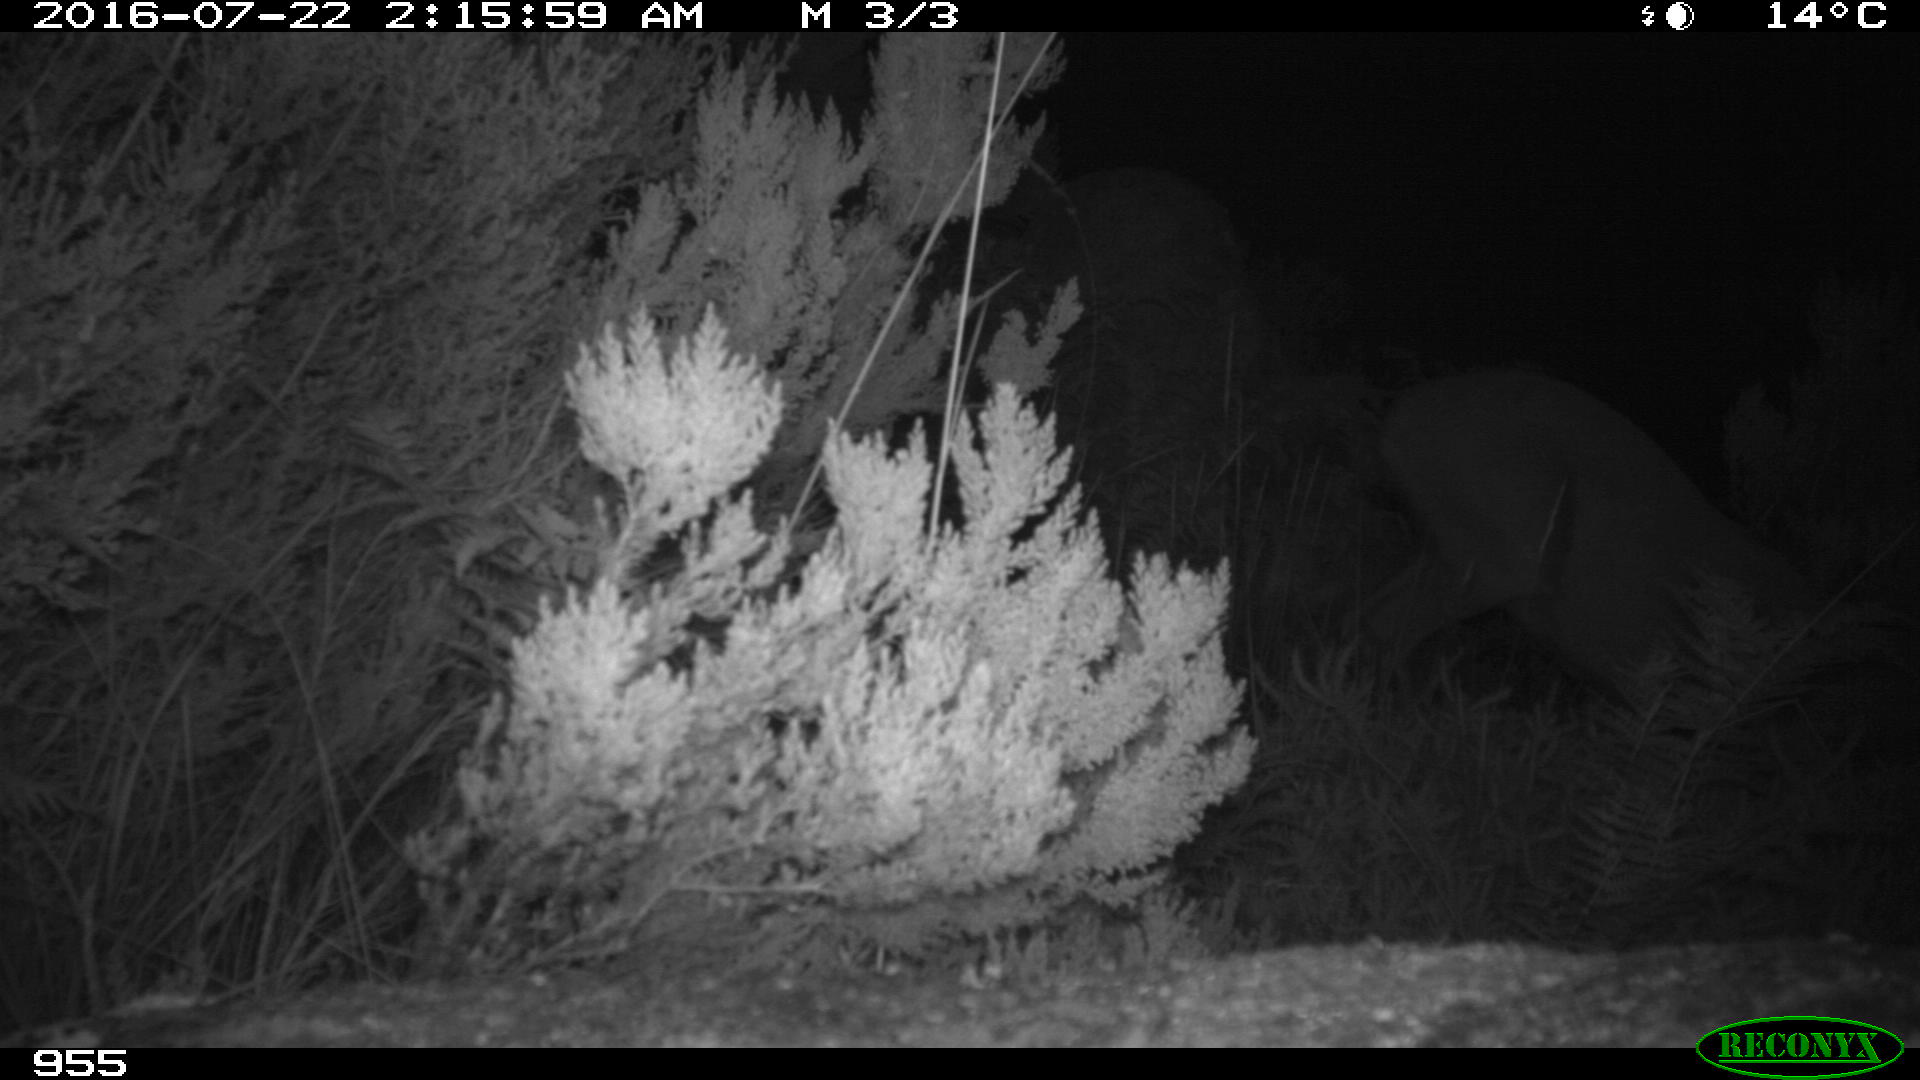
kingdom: Animalia
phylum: Chordata
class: Mammalia
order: Artiodactyla
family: Cervidae
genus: Capreolus
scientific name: Capreolus capreolus
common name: Western roe deer
